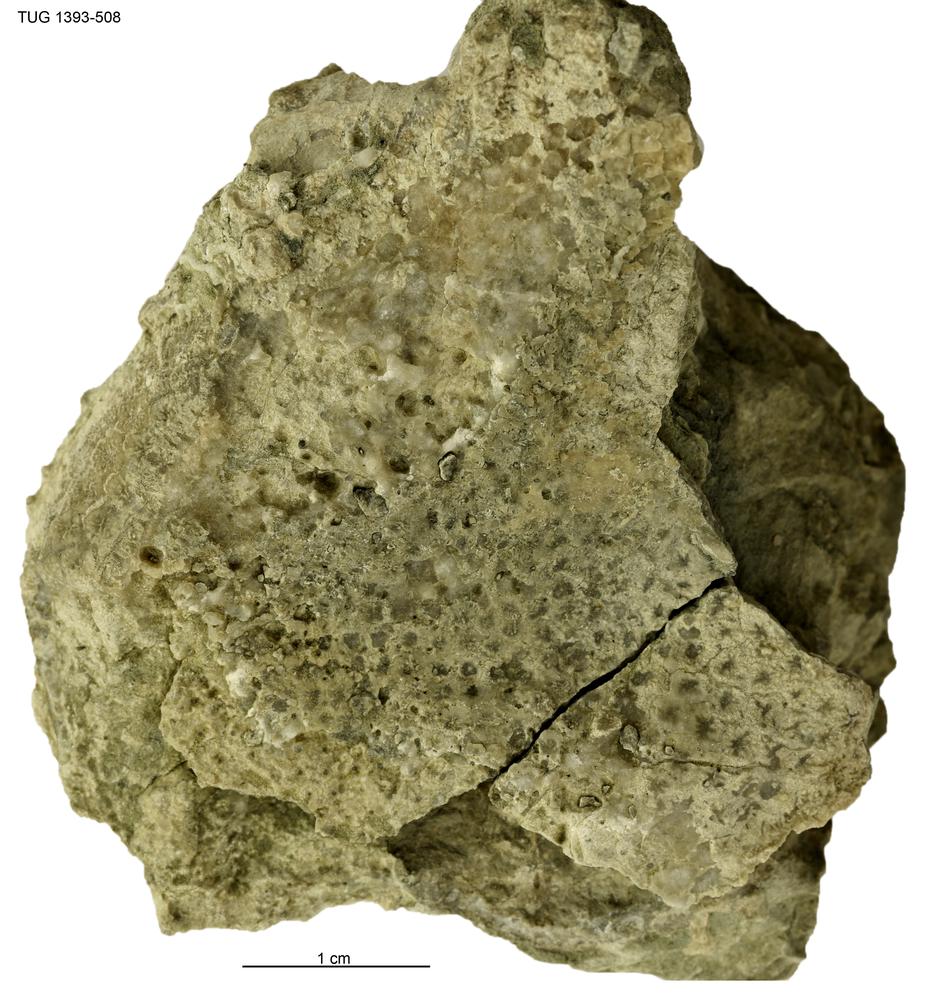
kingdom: Plantae
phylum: Chlorophyta
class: Chlorophyceae
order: Receptaculitales
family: Receptaculitaceae
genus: Receptaculites
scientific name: Receptaculites
